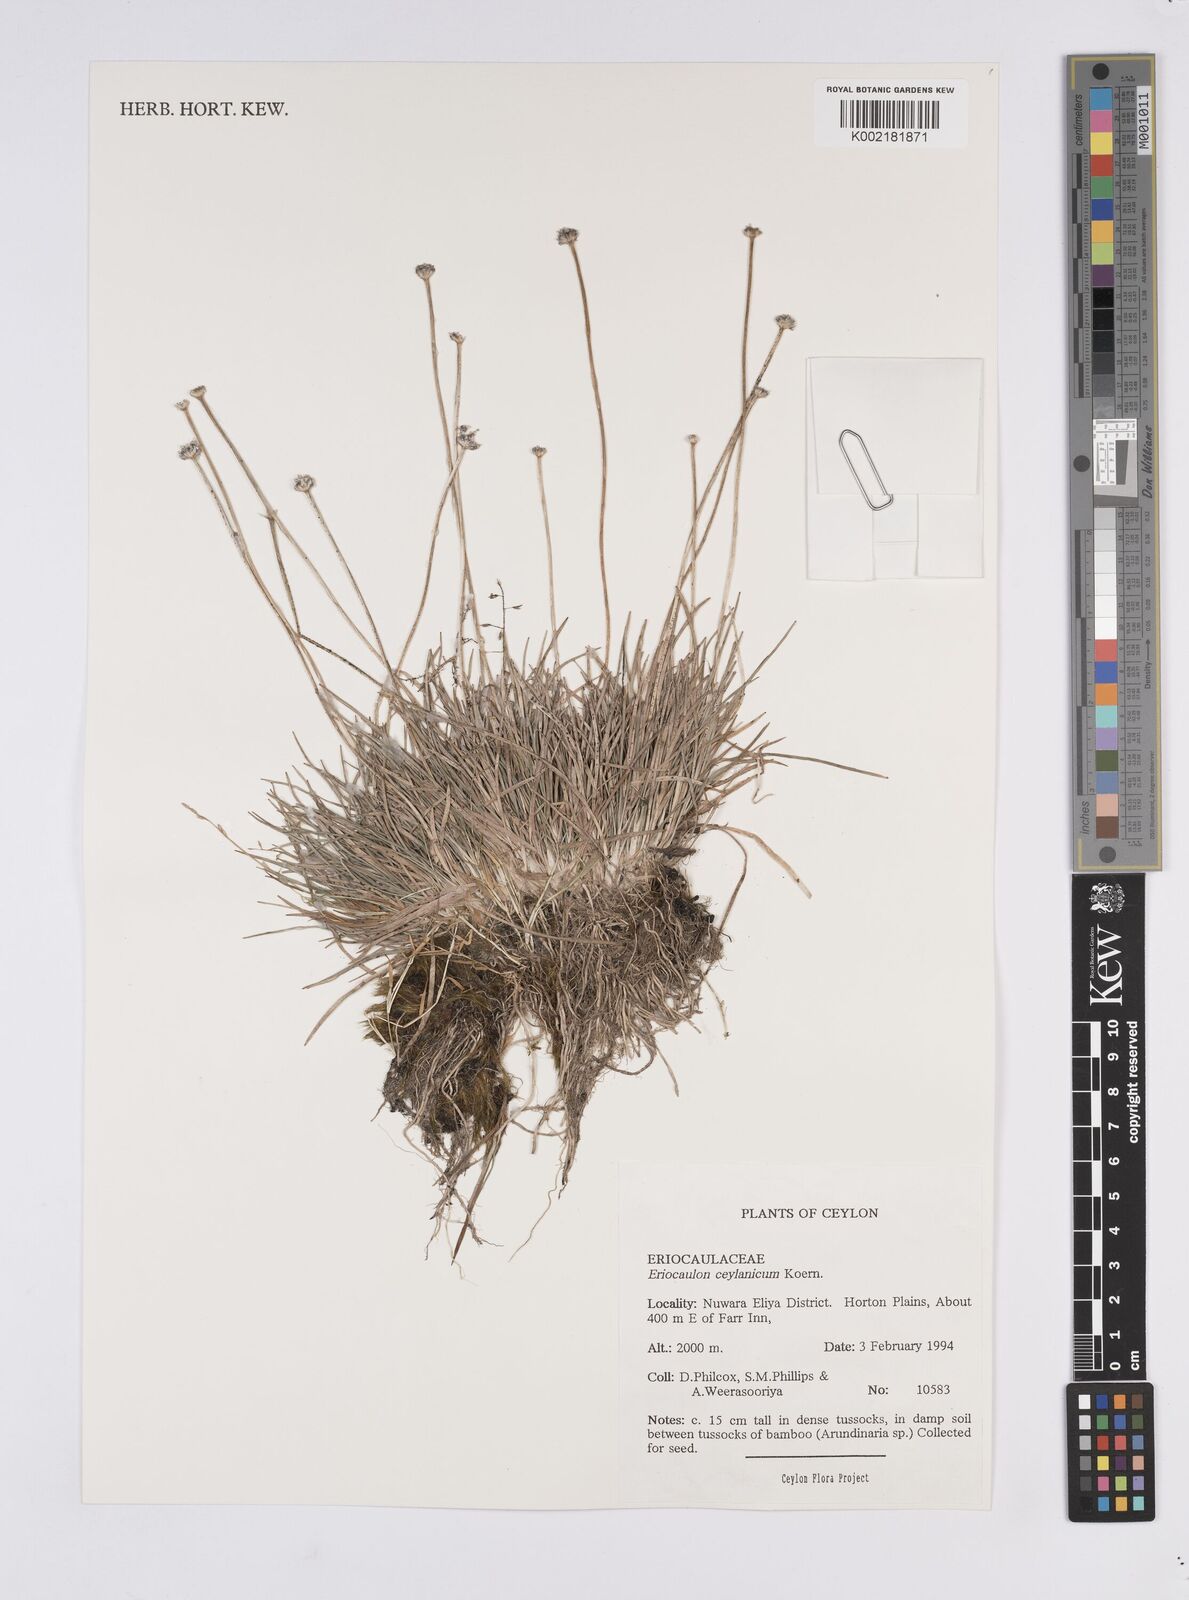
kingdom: Plantae
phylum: Tracheophyta
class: Liliopsida
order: Poales
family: Eriocaulaceae
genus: Eriocaulon
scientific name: Eriocaulon ceylanicum
